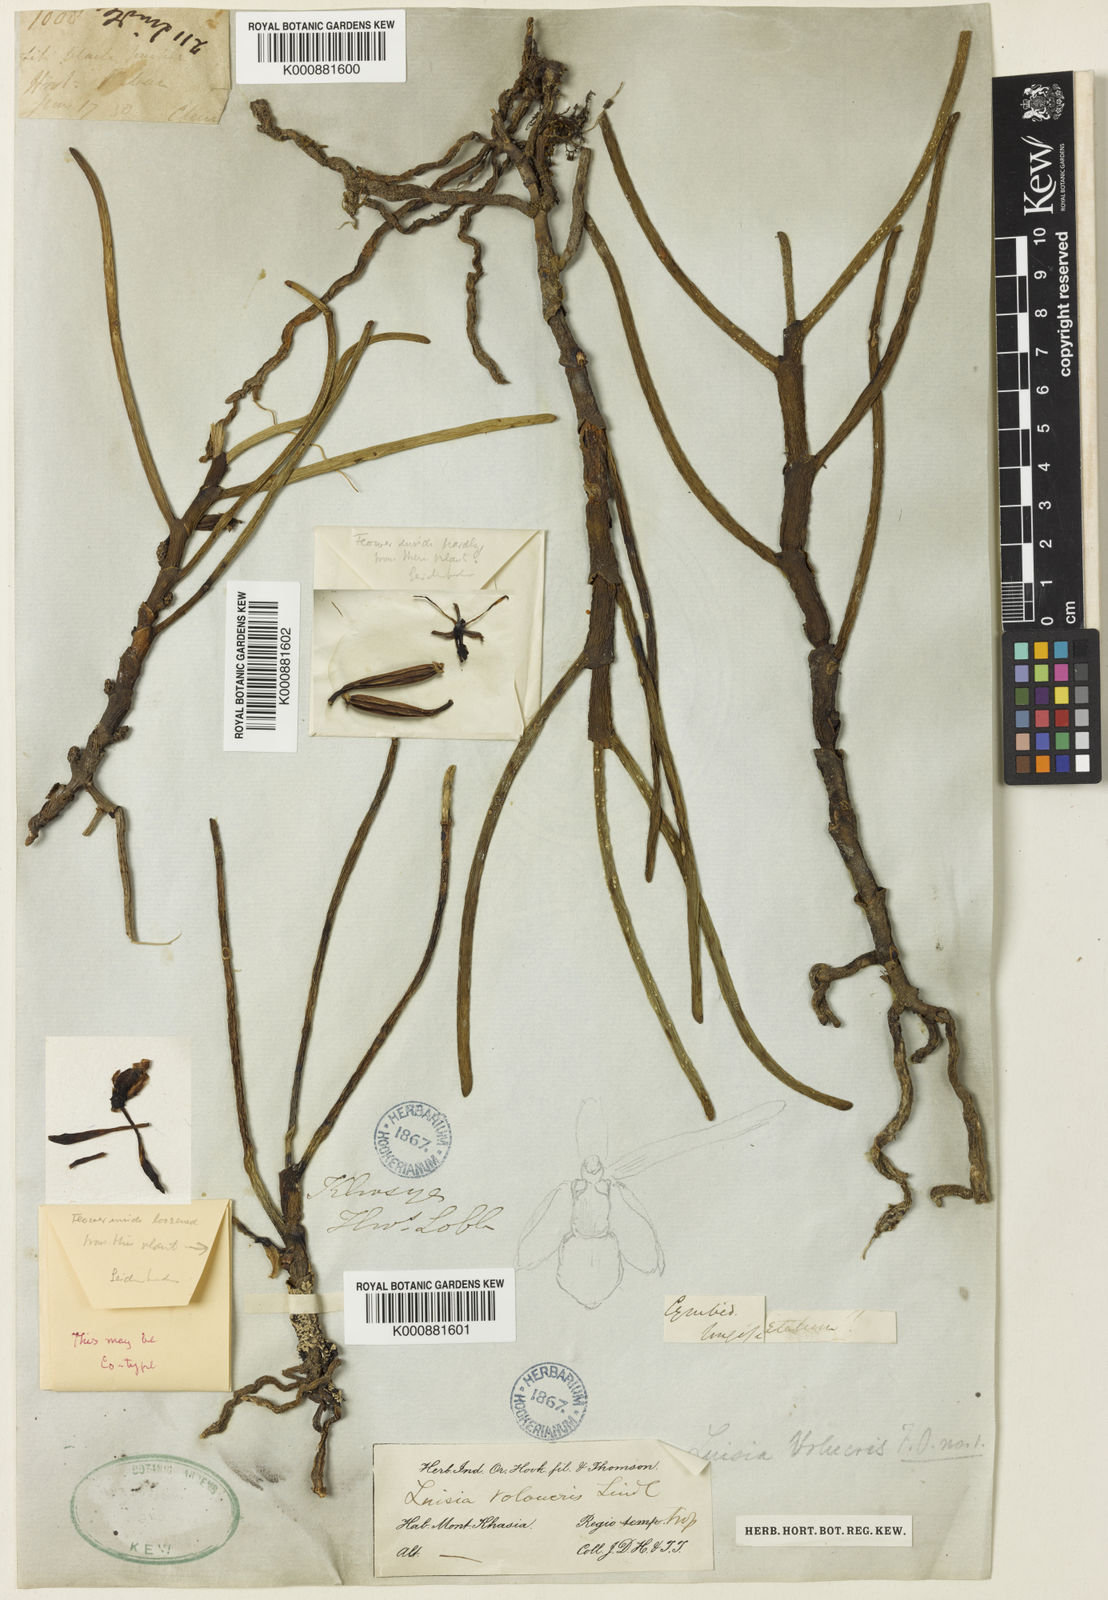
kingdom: Plantae
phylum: Tracheophyta
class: Liliopsida
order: Asparagales
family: Orchidaceae
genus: Luisia
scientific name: Luisia volucris
